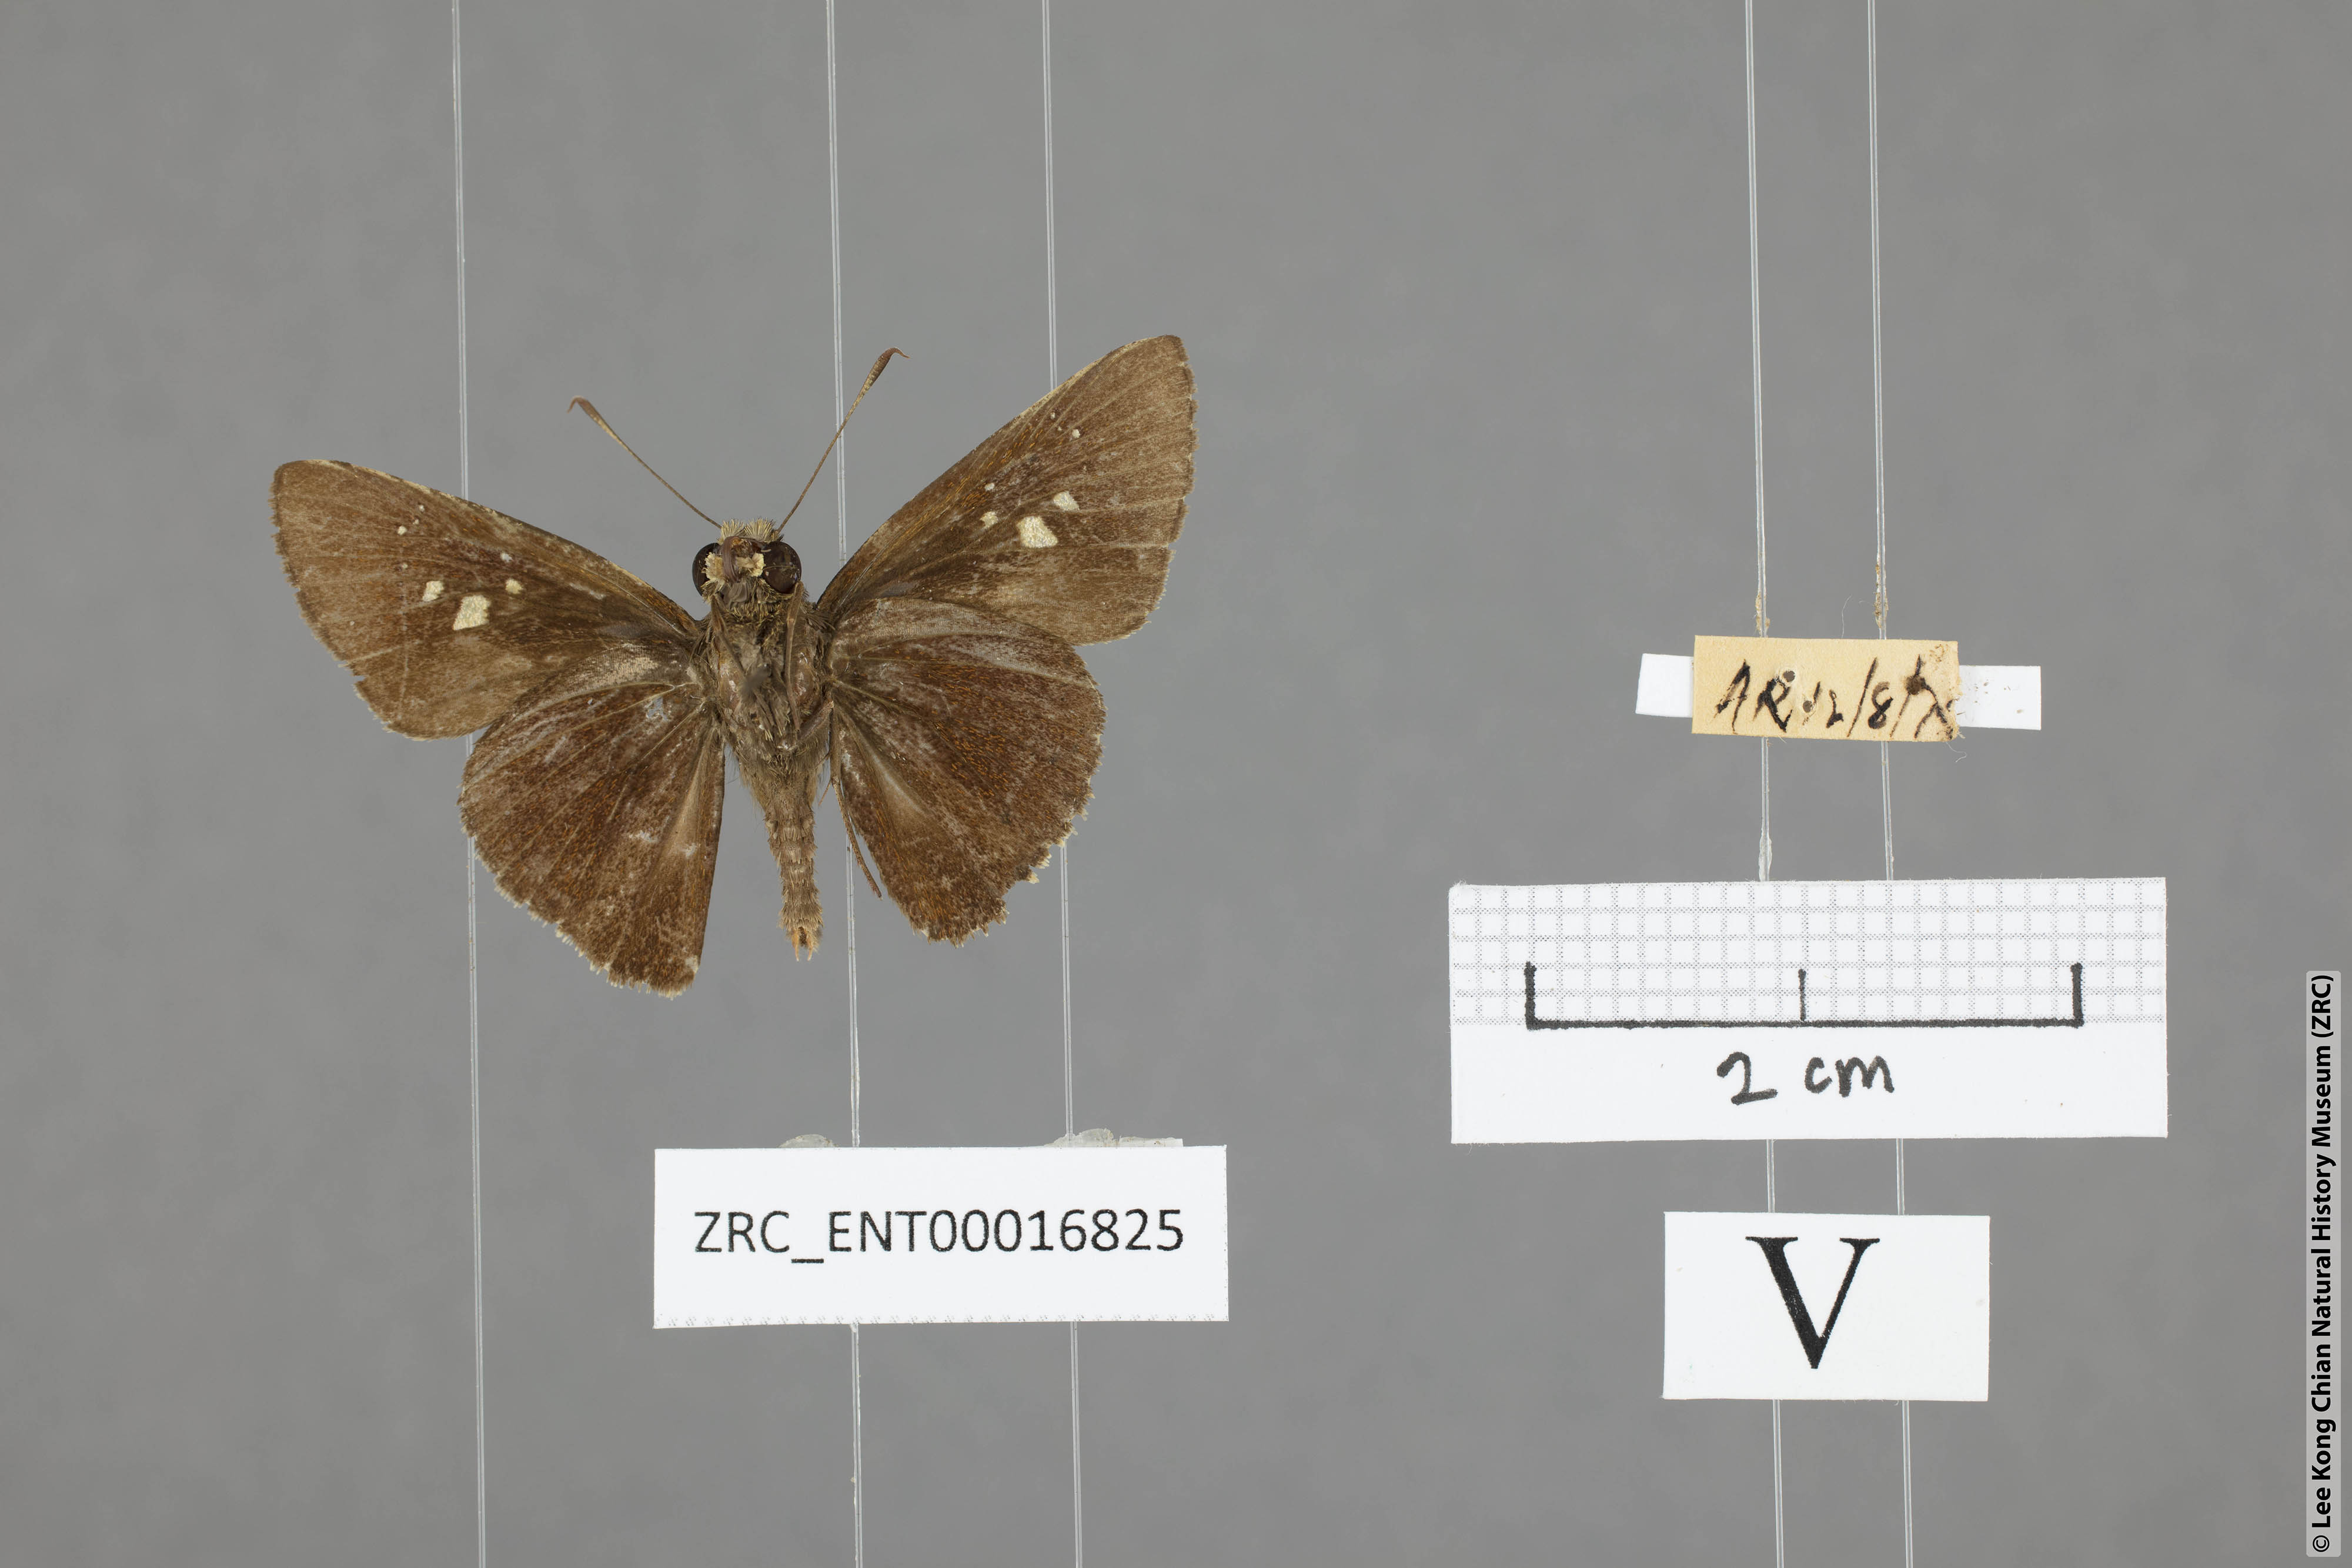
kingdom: Animalia
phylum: Arthropoda
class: Insecta
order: Lepidoptera
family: Hesperiidae
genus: Caltoris
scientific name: Caltoris cormasa
